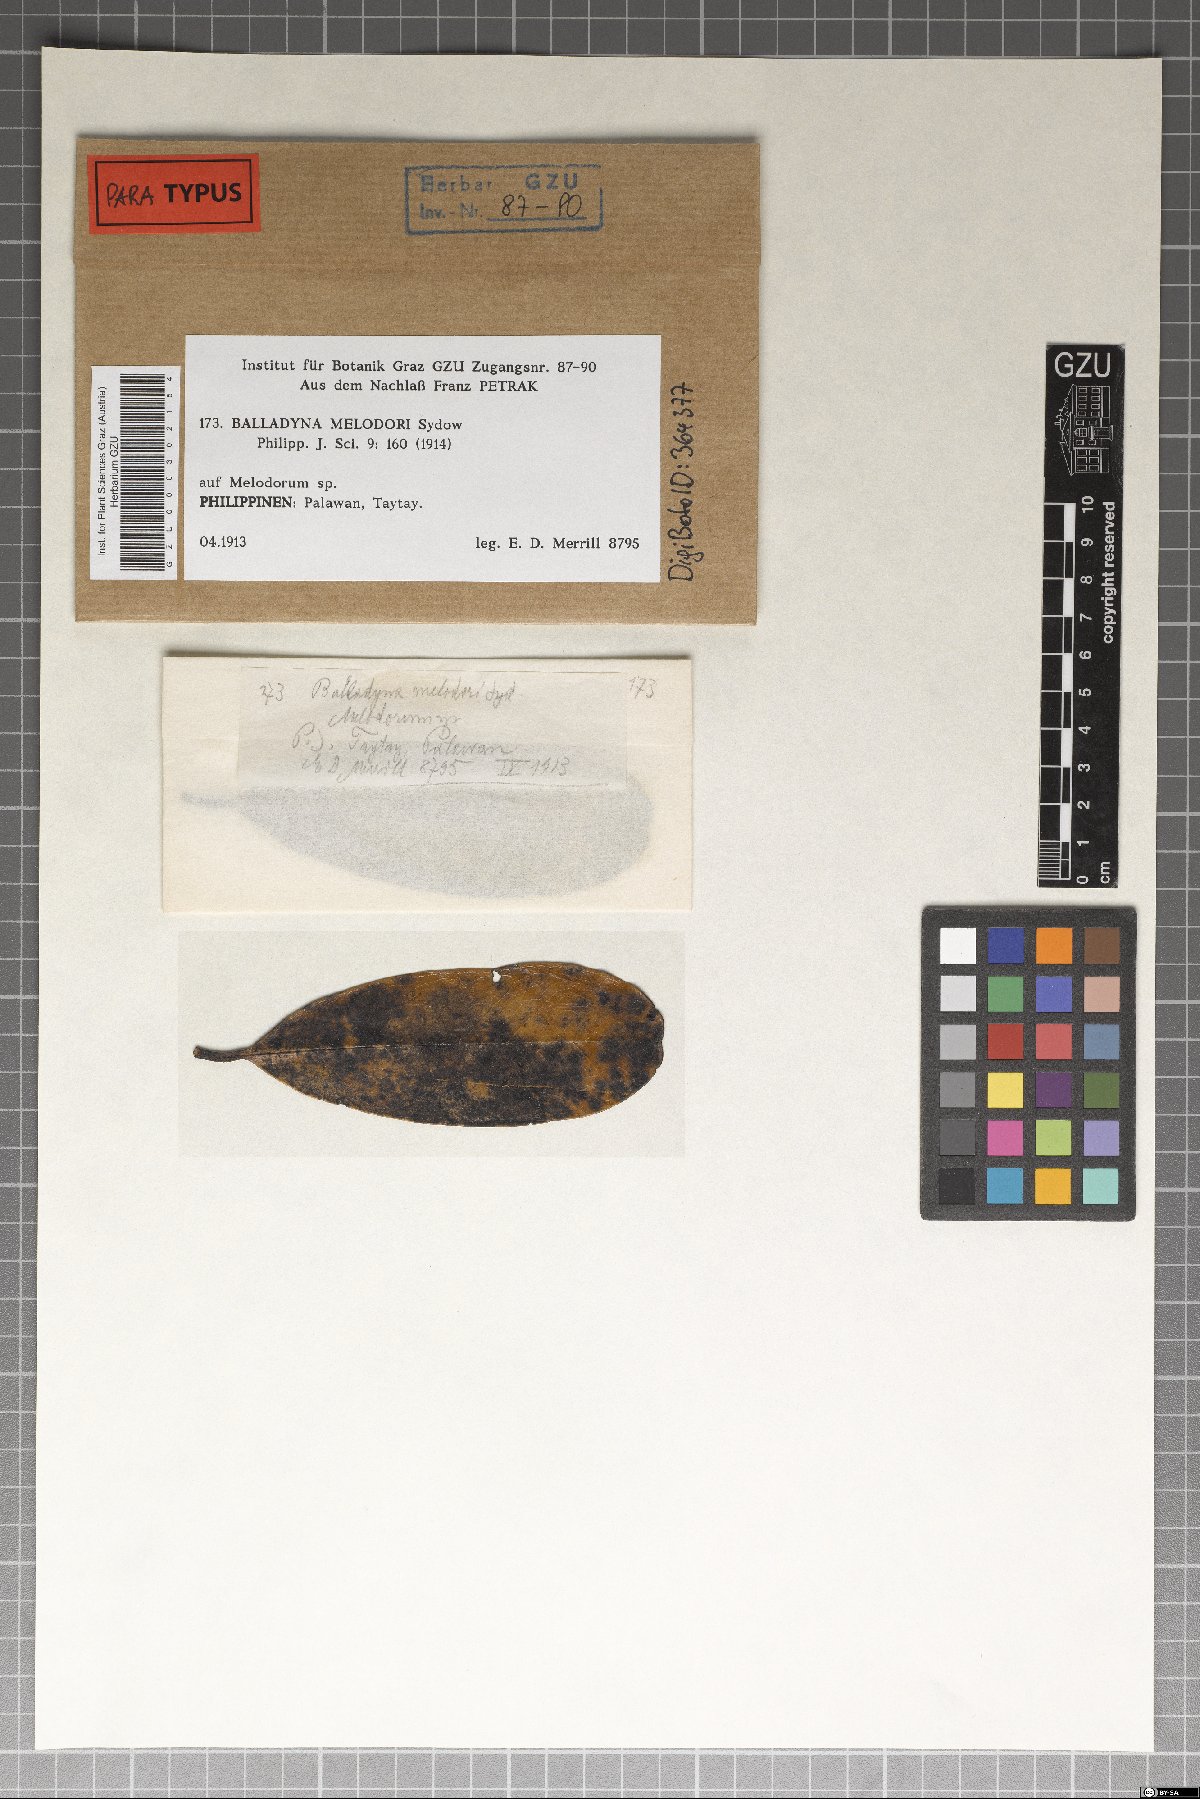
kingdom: Fungi
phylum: Ascomycota
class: Dothideomycetes
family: Balladynaceae
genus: Balladyna
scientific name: Balladyna melodori
